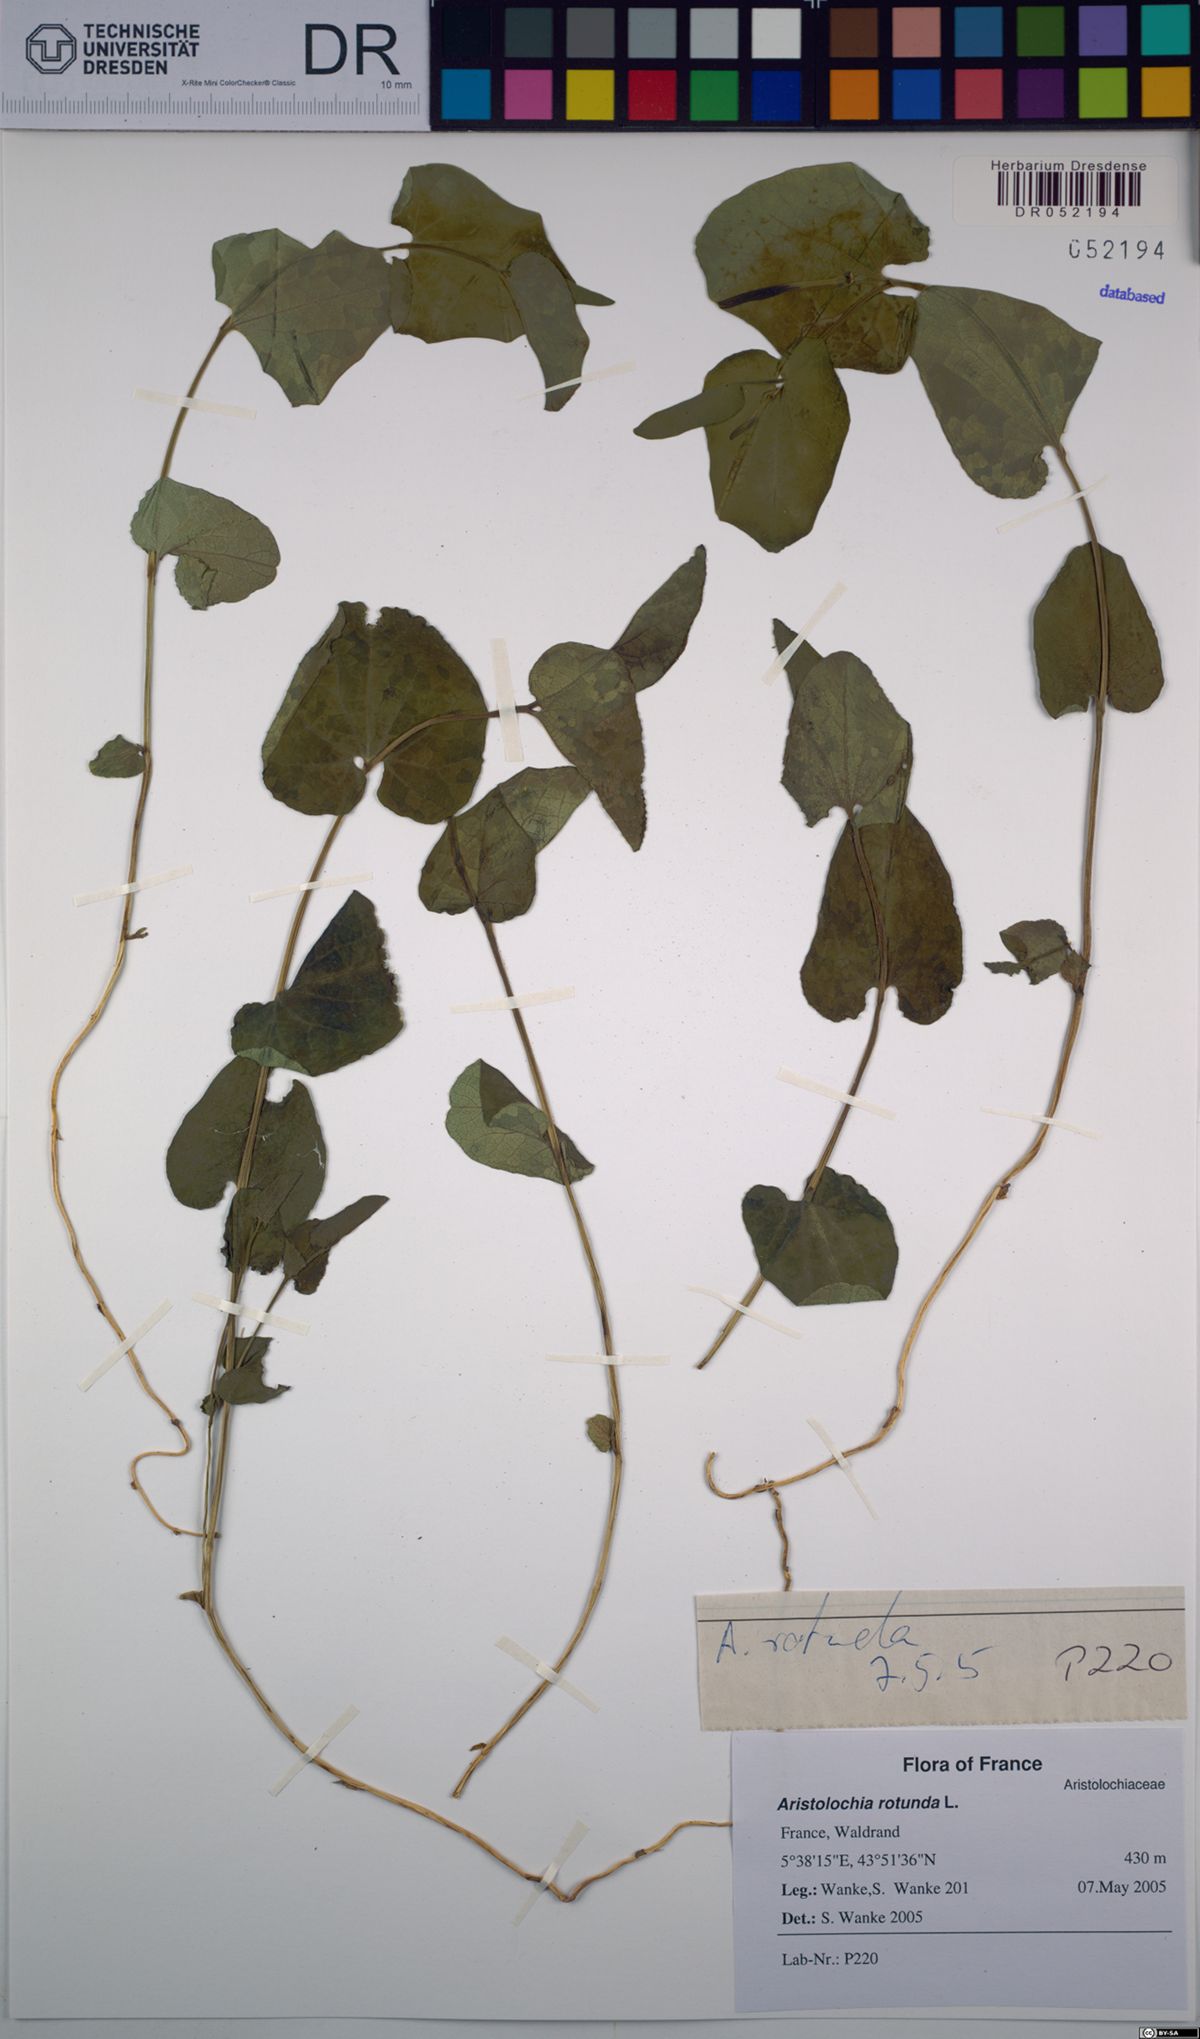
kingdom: Plantae
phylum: Tracheophyta
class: Magnoliopsida
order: Piperales
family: Aristolochiaceae
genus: Aristolochia
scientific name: Aristolochia rotunda
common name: Smearwort
